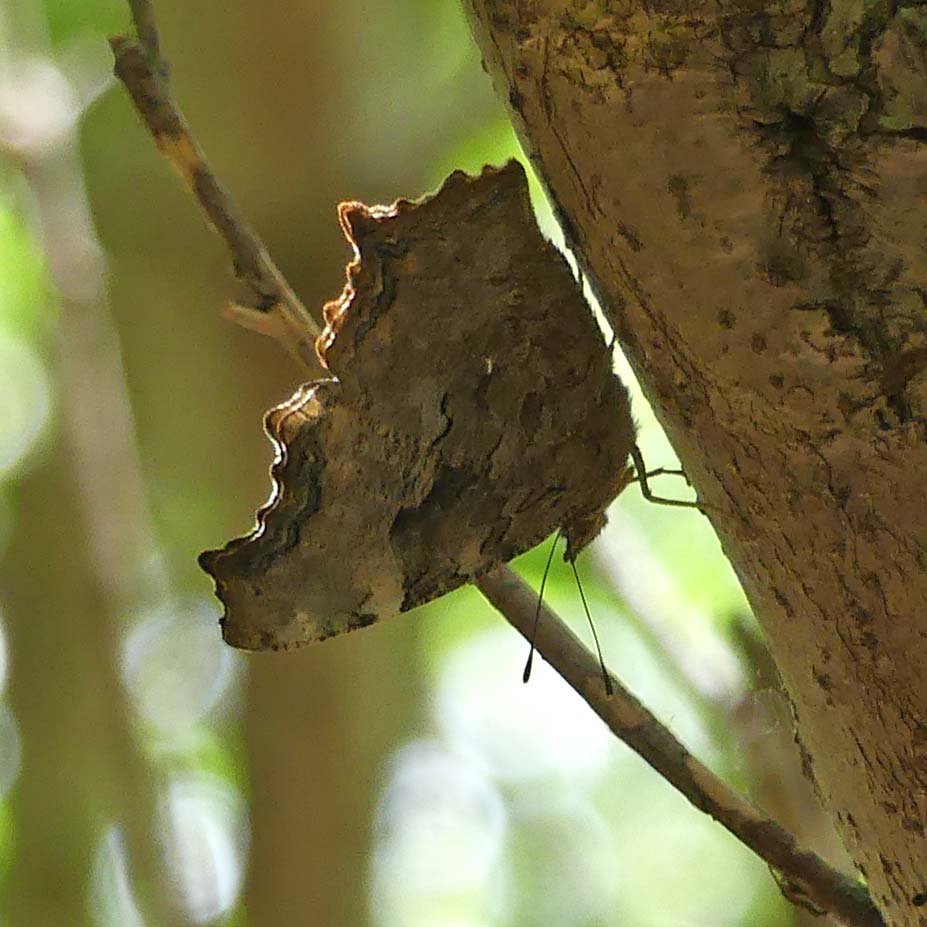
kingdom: Animalia
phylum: Arthropoda
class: Insecta
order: Lepidoptera
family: Nymphalidae
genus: Polygonia
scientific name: Polygonia vaualbum
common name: Compton Tortoiseshell
